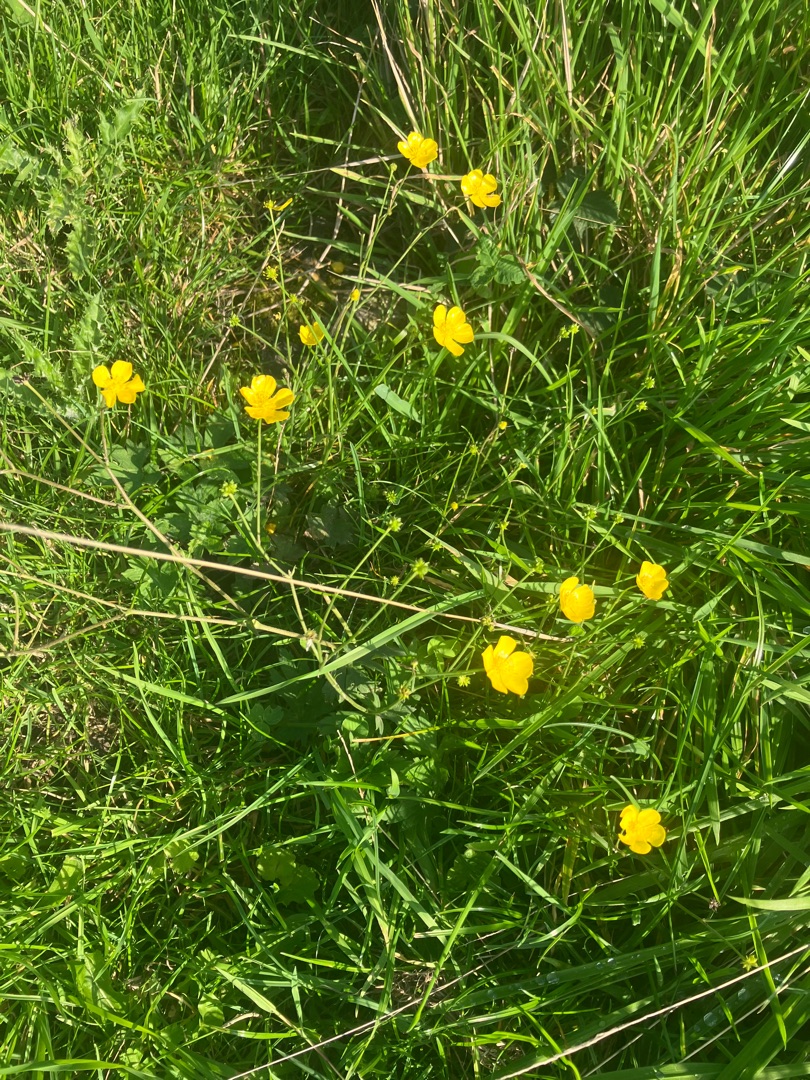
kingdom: Plantae
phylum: Tracheophyta
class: Magnoliopsida
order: Ranunculales
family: Ranunculaceae
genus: Ranunculus
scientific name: Ranunculus acris
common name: Bidende ranunkel
